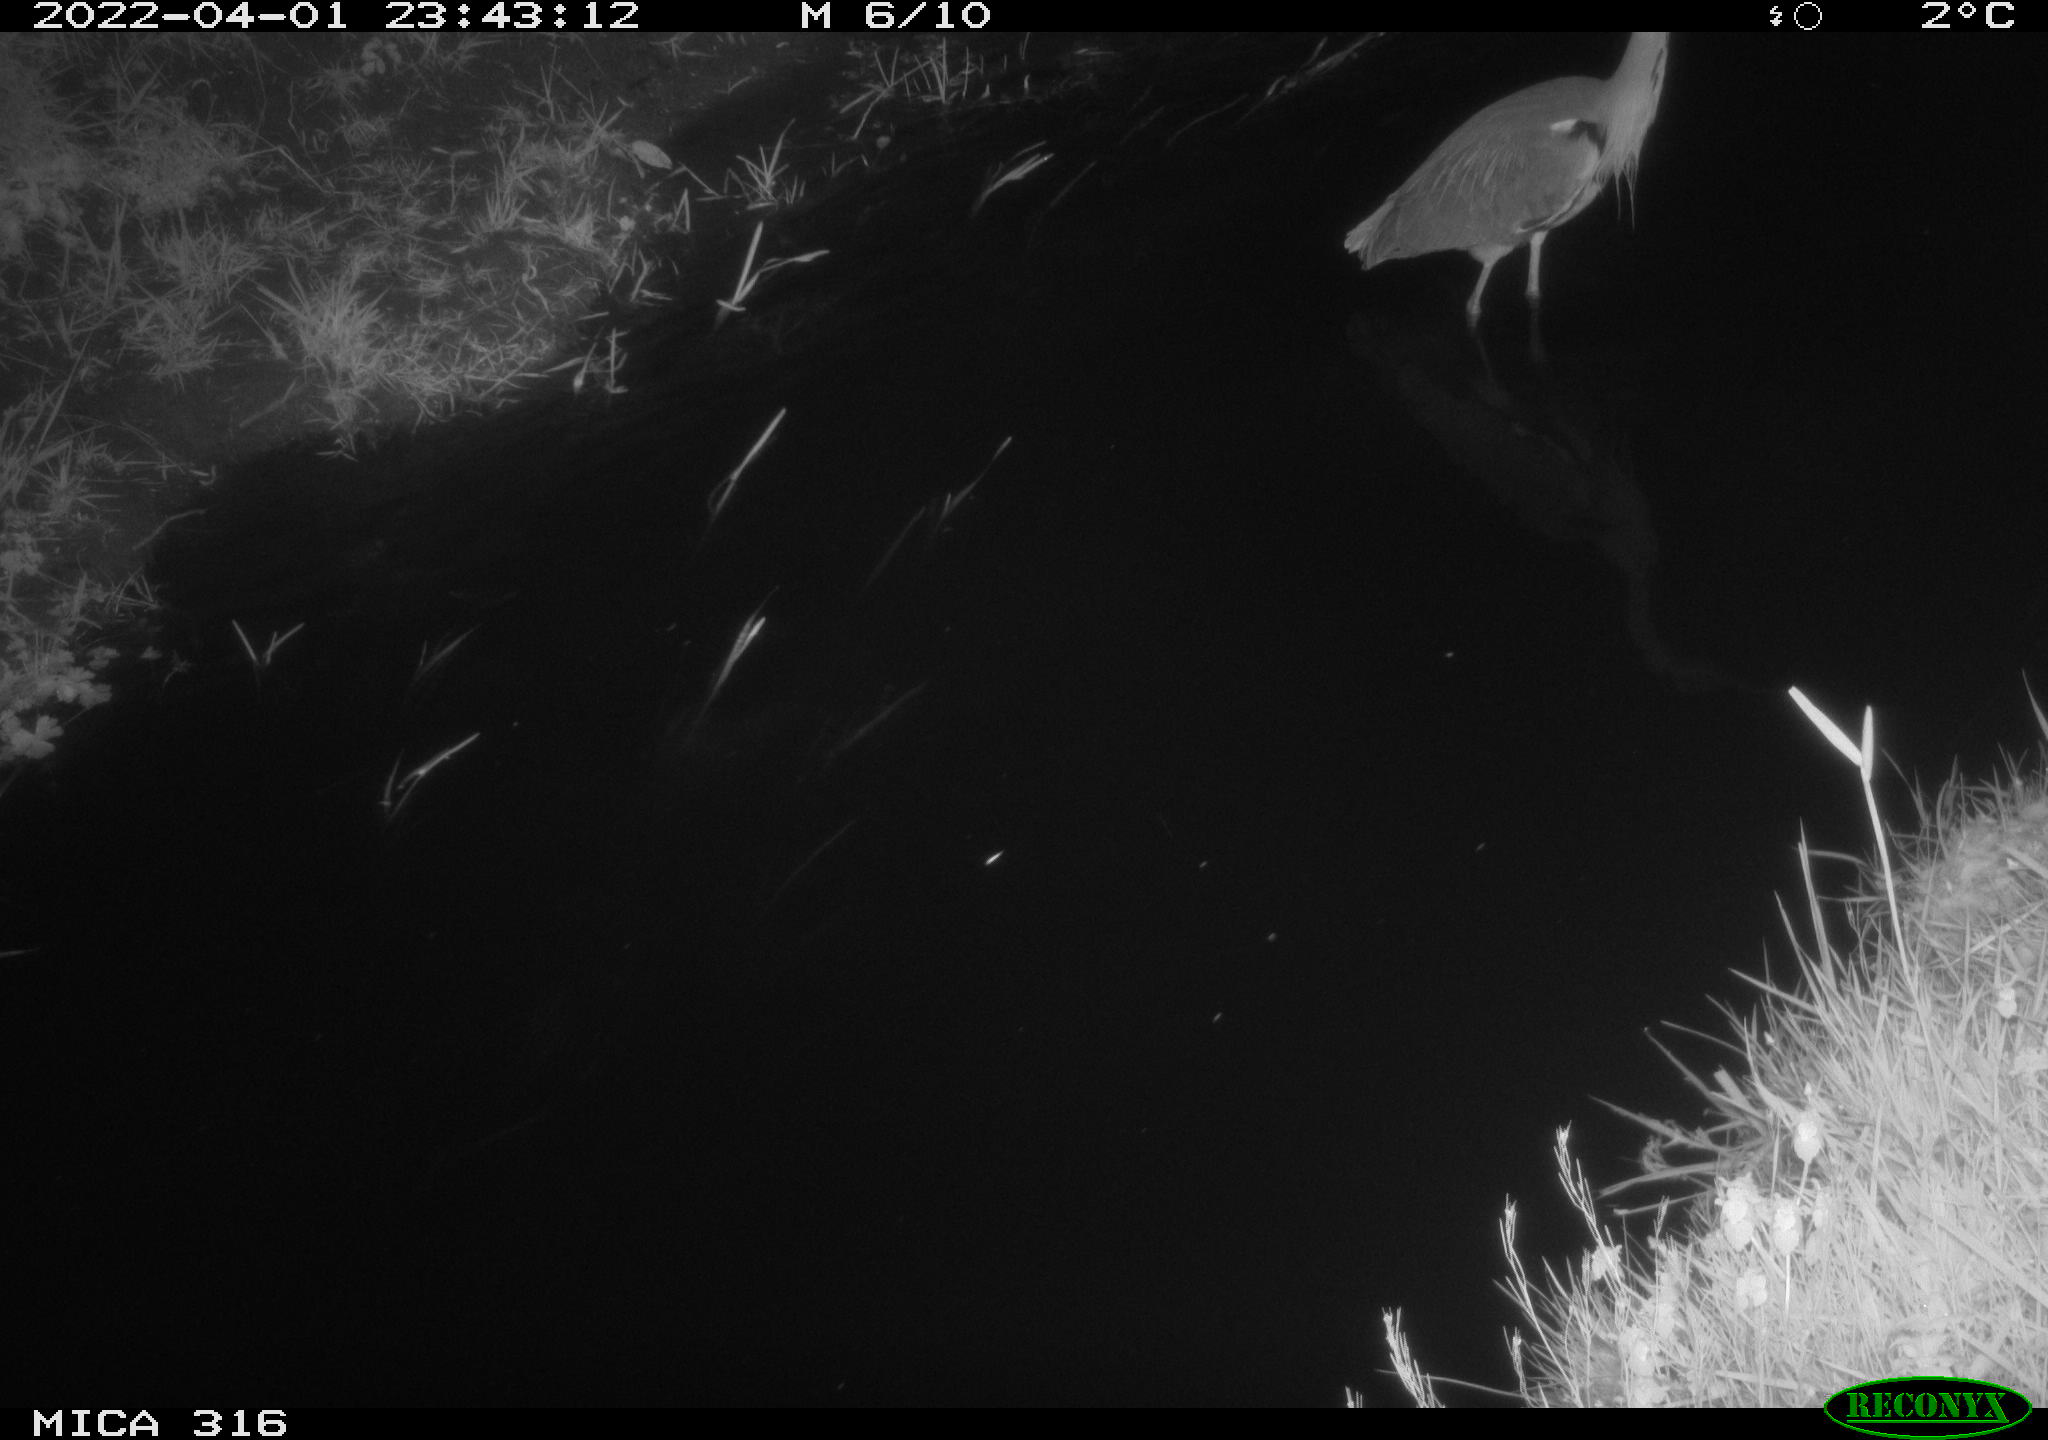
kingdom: Animalia
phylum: Chordata
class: Aves
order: Anseriformes
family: Anatidae
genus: Anas
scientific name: Anas platyrhynchos
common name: Mallard
